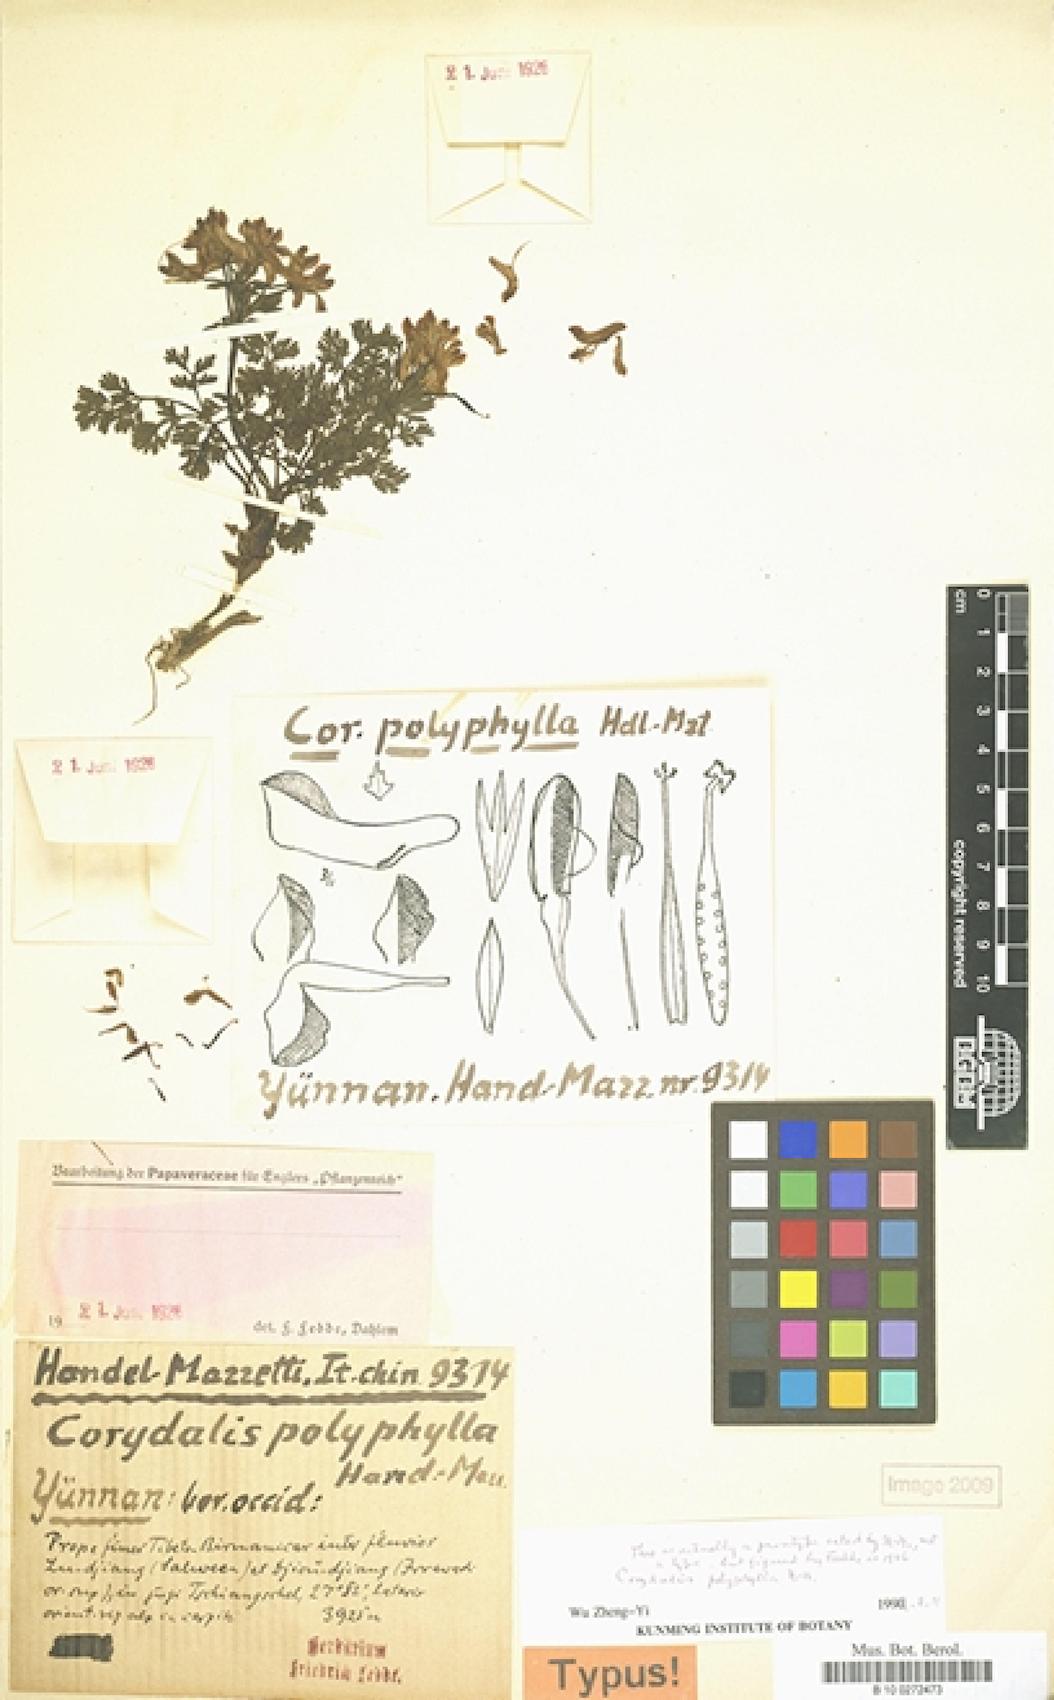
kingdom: Plantae
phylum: Tracheophyta
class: Magnoliopsida
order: Ranunculales
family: Papaveraceae
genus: Corydalis
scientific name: Corydalis polyphylla
